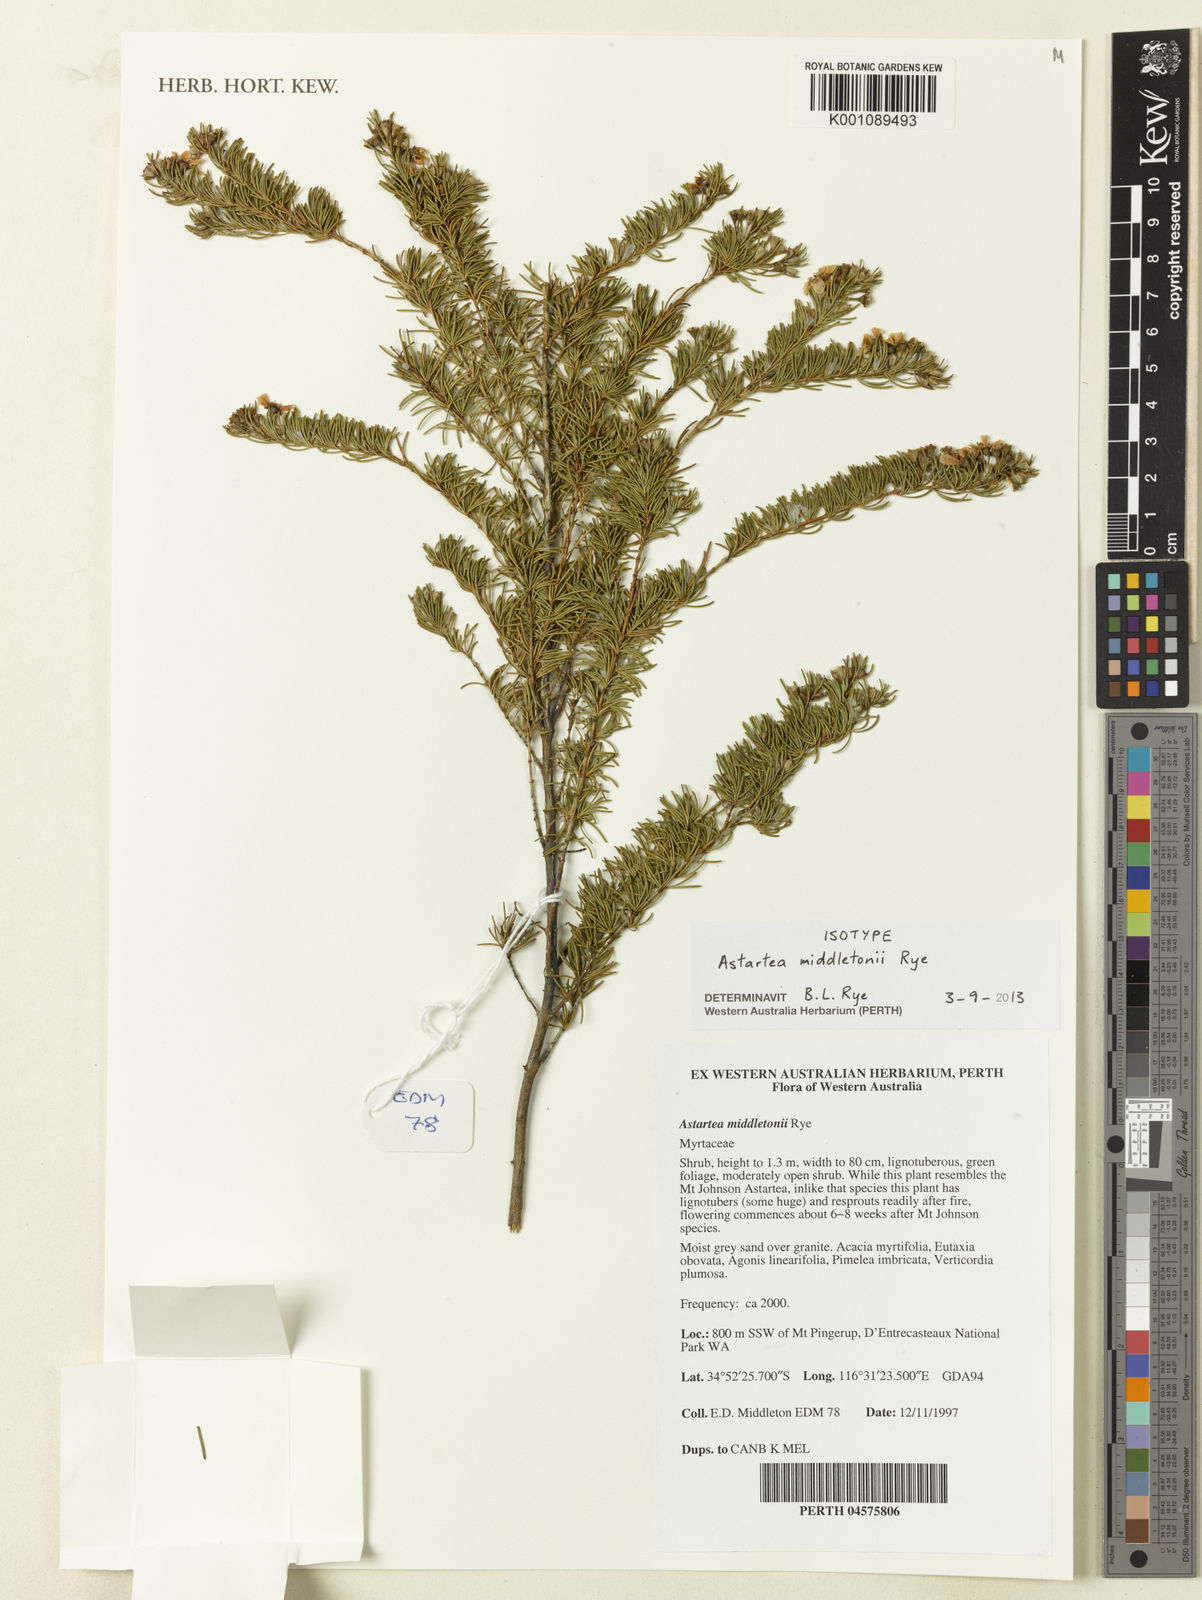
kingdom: Plantae
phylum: Tracheophyta
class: Magnoliopsida
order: Myrtales
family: Myrtaceae
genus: Astartea
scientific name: Astartea middletonii
